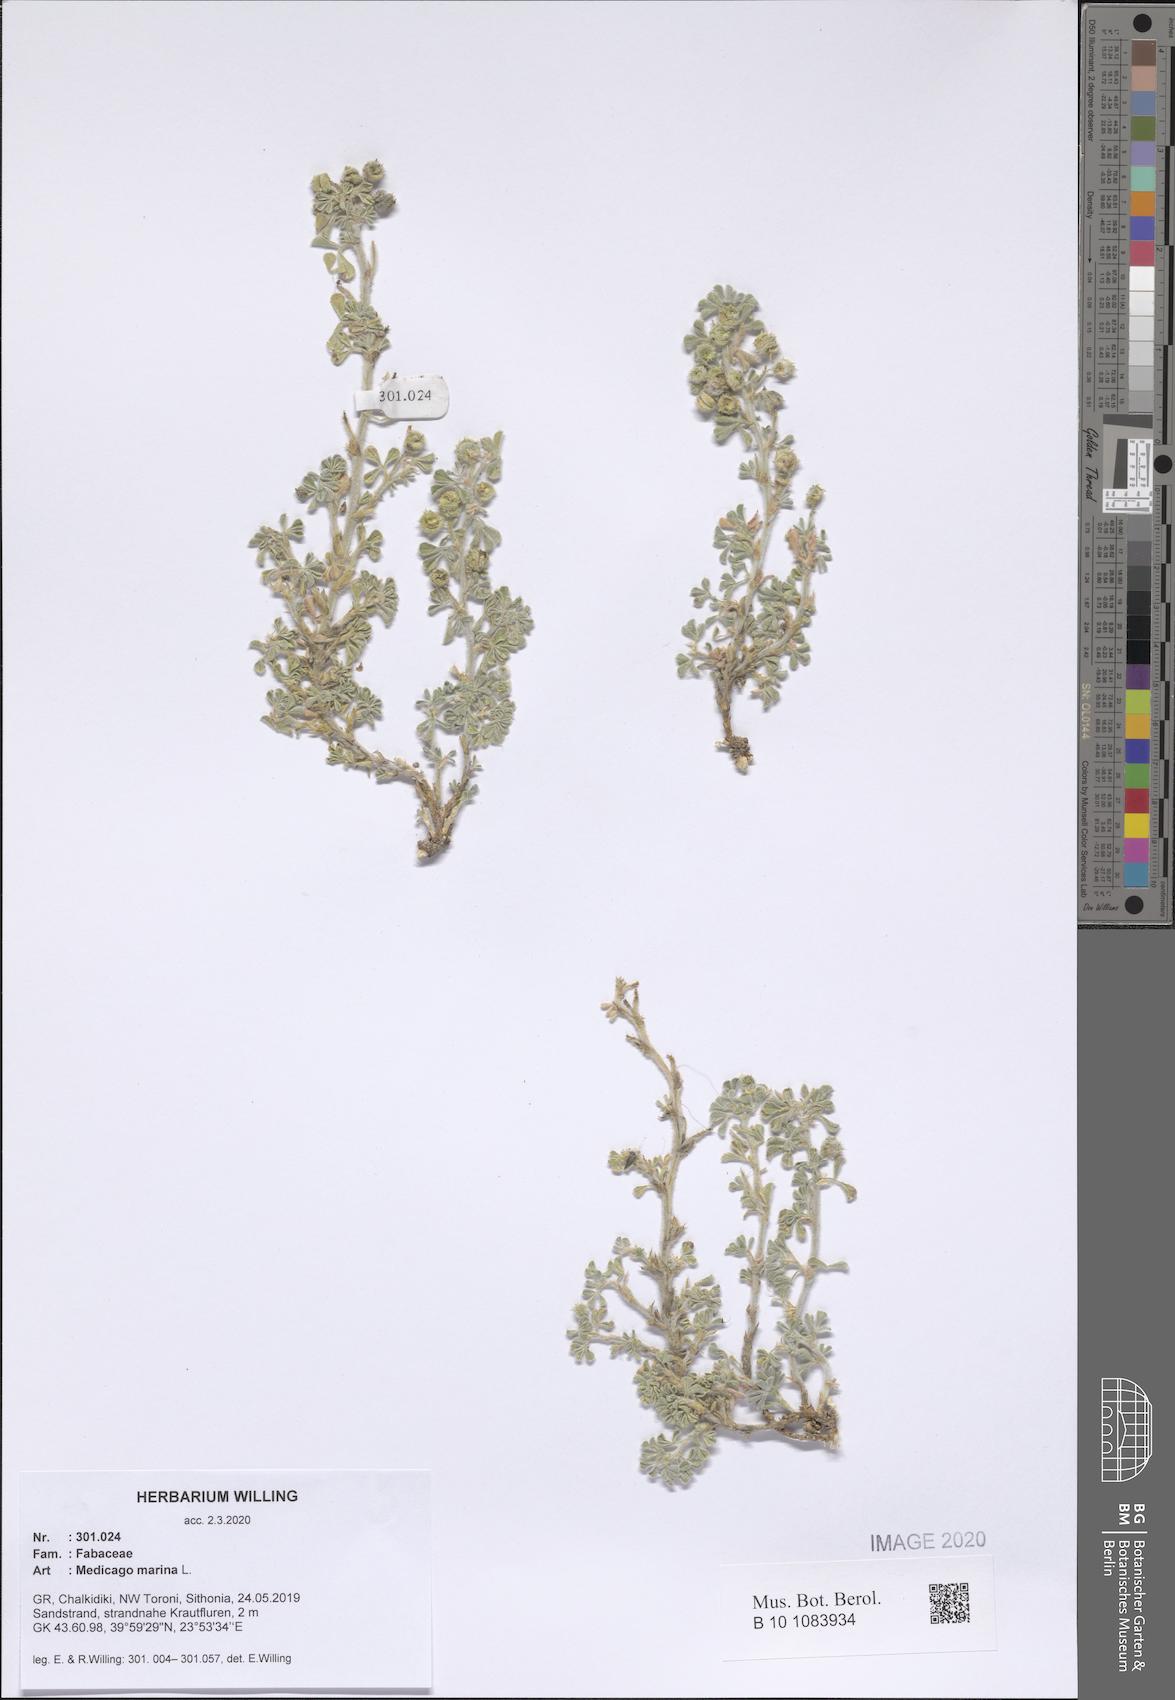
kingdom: Plantae
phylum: Tracheophyta
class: Magnoliopsida
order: Fabales
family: Fabaceae
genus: Medicago
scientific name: Medicago marina
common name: Sea medick
